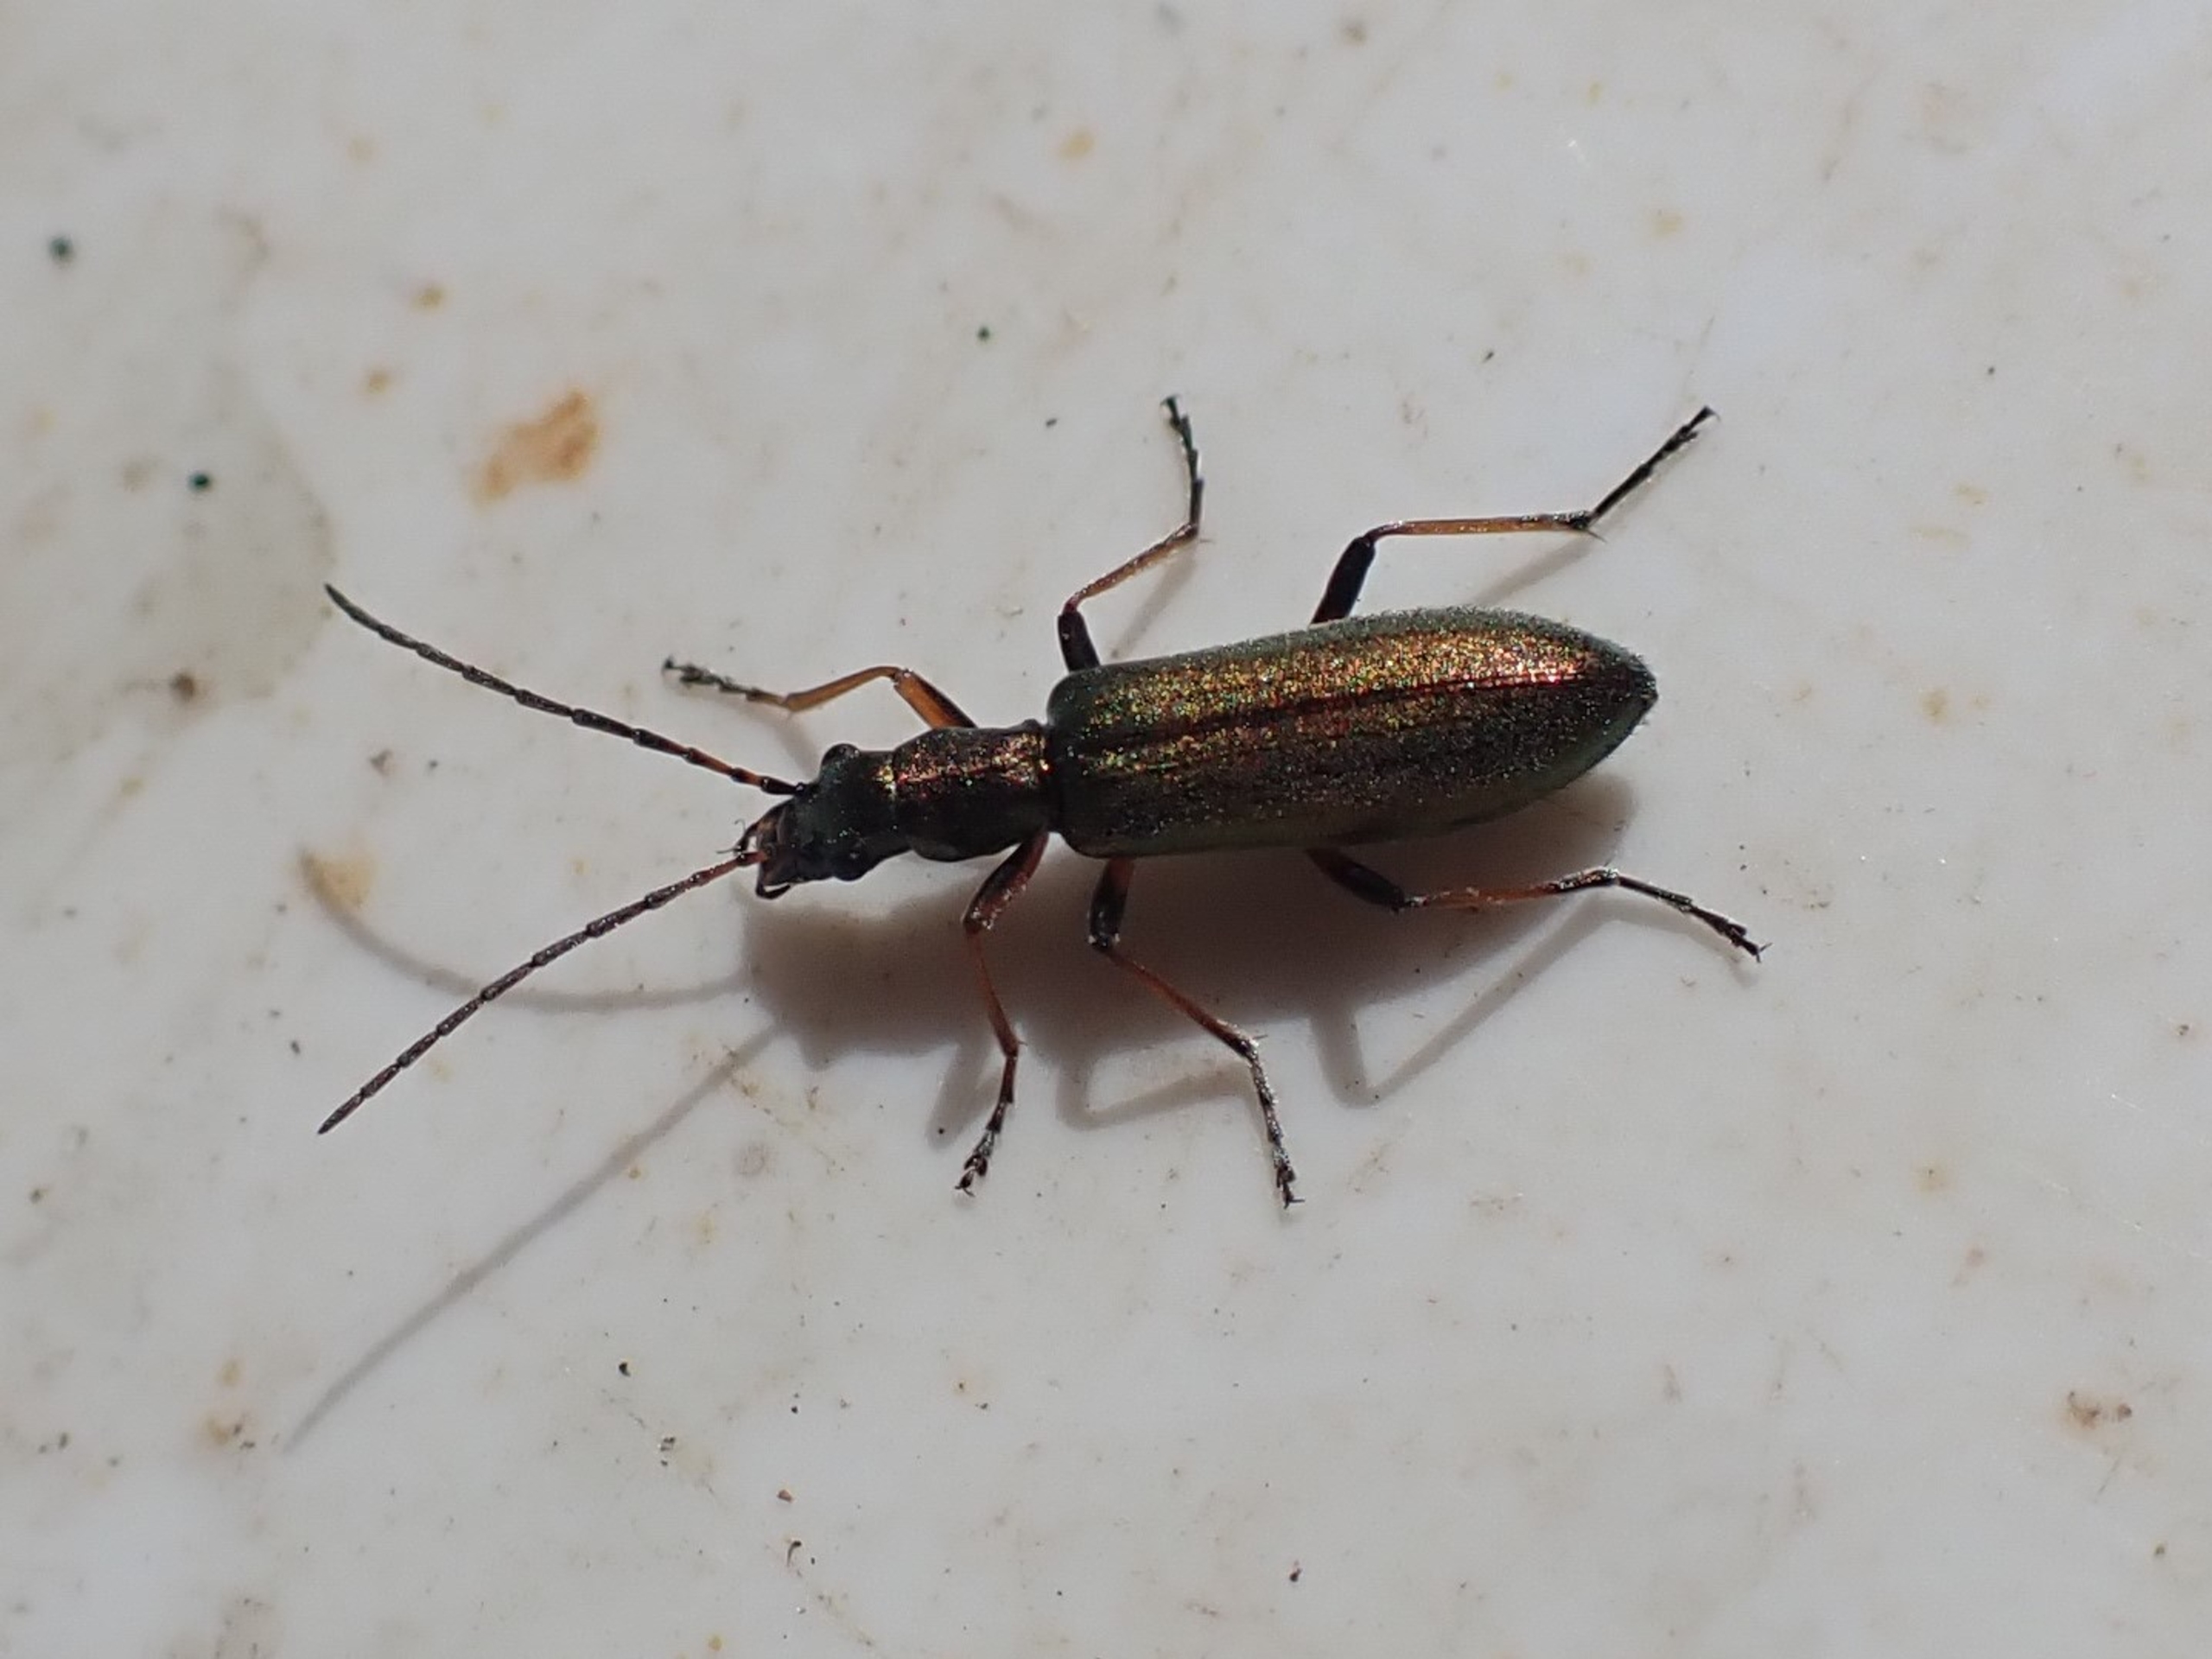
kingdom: Animalia
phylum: Arthropoda
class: Insecta
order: Coleoptera
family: Oedemeridae
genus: Chrysanthia
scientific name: Chrysanthia geniculata
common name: Grøn solbille
